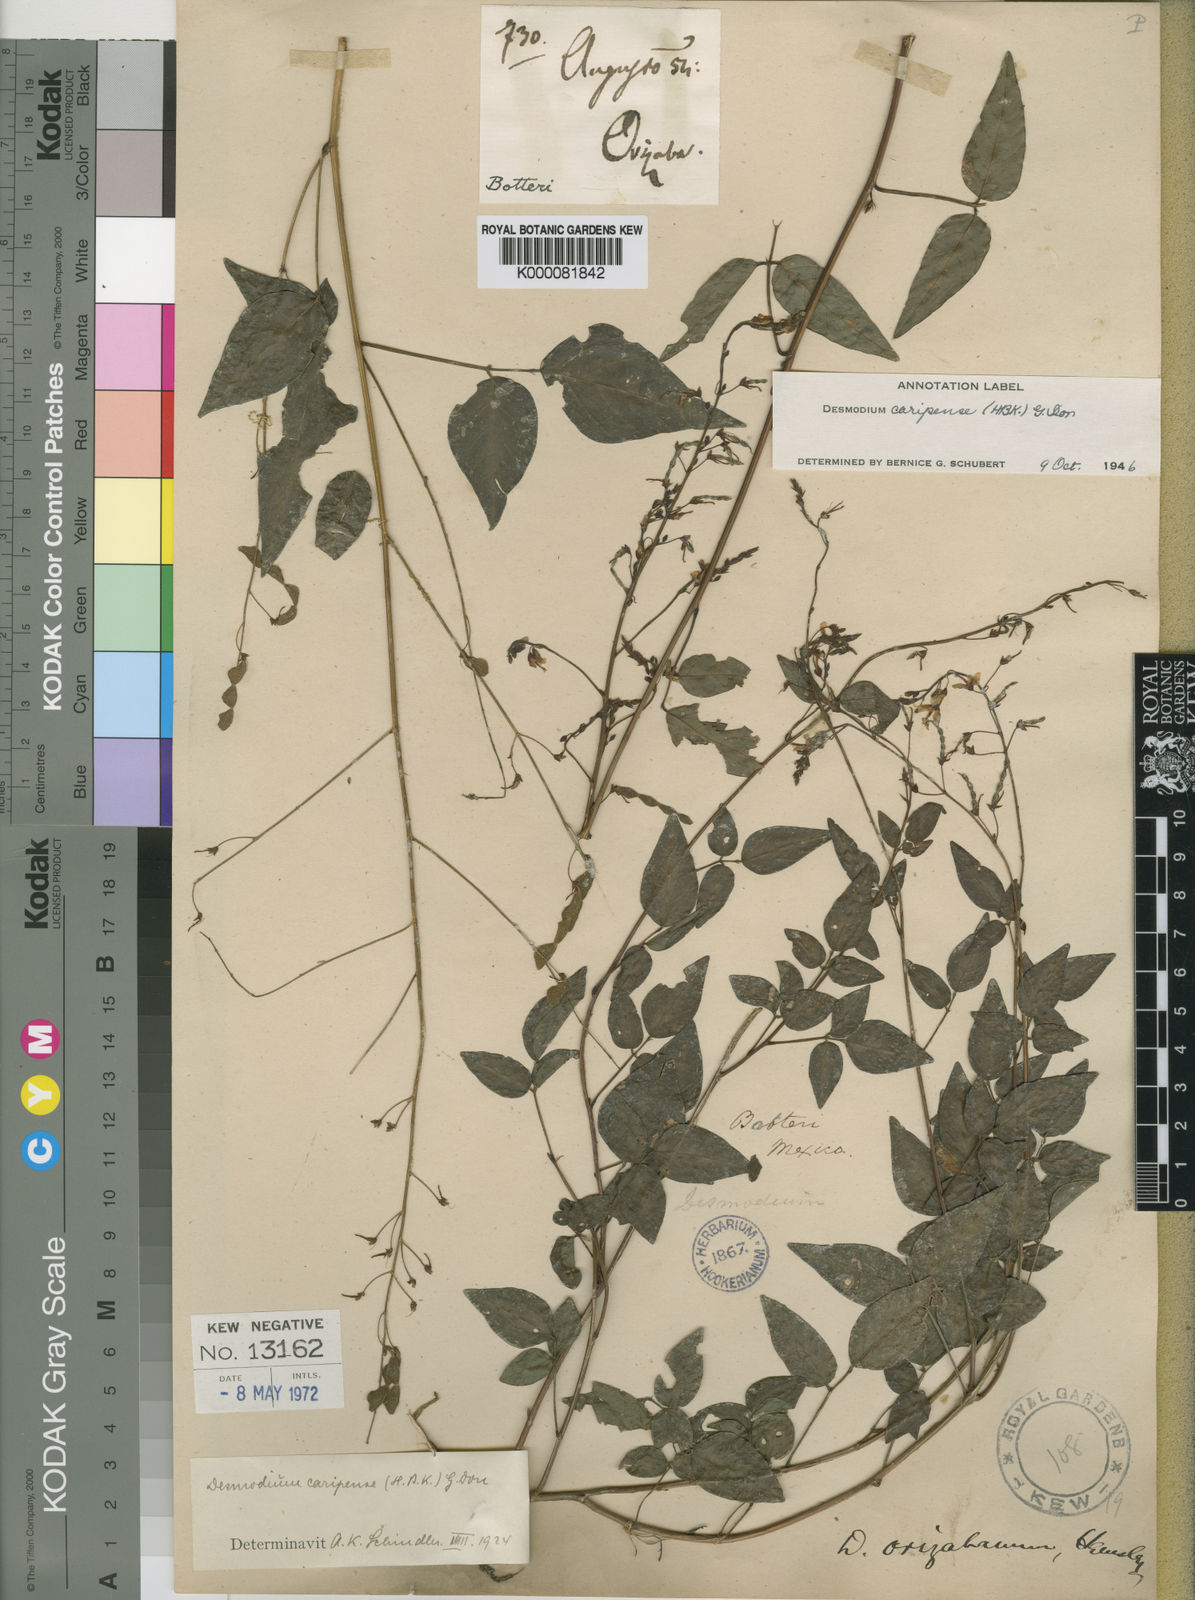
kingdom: Plantae
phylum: Tracheophyta
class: Magnoliopsida
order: Fabales
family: Fabaceae
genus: Desmodium
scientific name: Desmodium orizabanum
